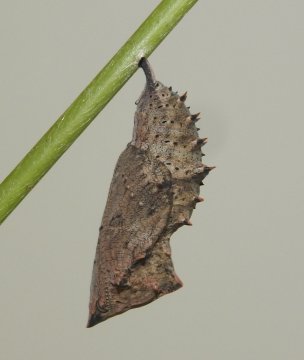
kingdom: Animalia
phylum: Arthropoda
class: Insecta
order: Lepidoptera
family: Nymphalidae
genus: Nymphalis
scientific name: Nymphalis antiopa
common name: Mourning Cloak
